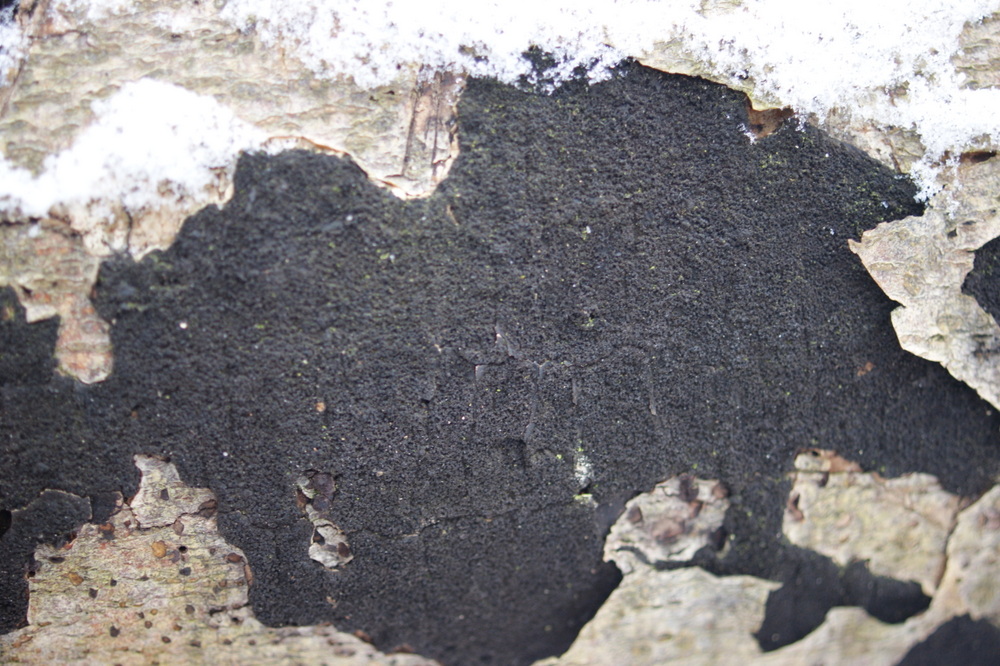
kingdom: Fungi
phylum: Ascomycota
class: Sordariomycetes
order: Xylariales
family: Diatrypaceae
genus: Eutypa
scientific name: Eutypa spinosa
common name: grov kulskorpe
